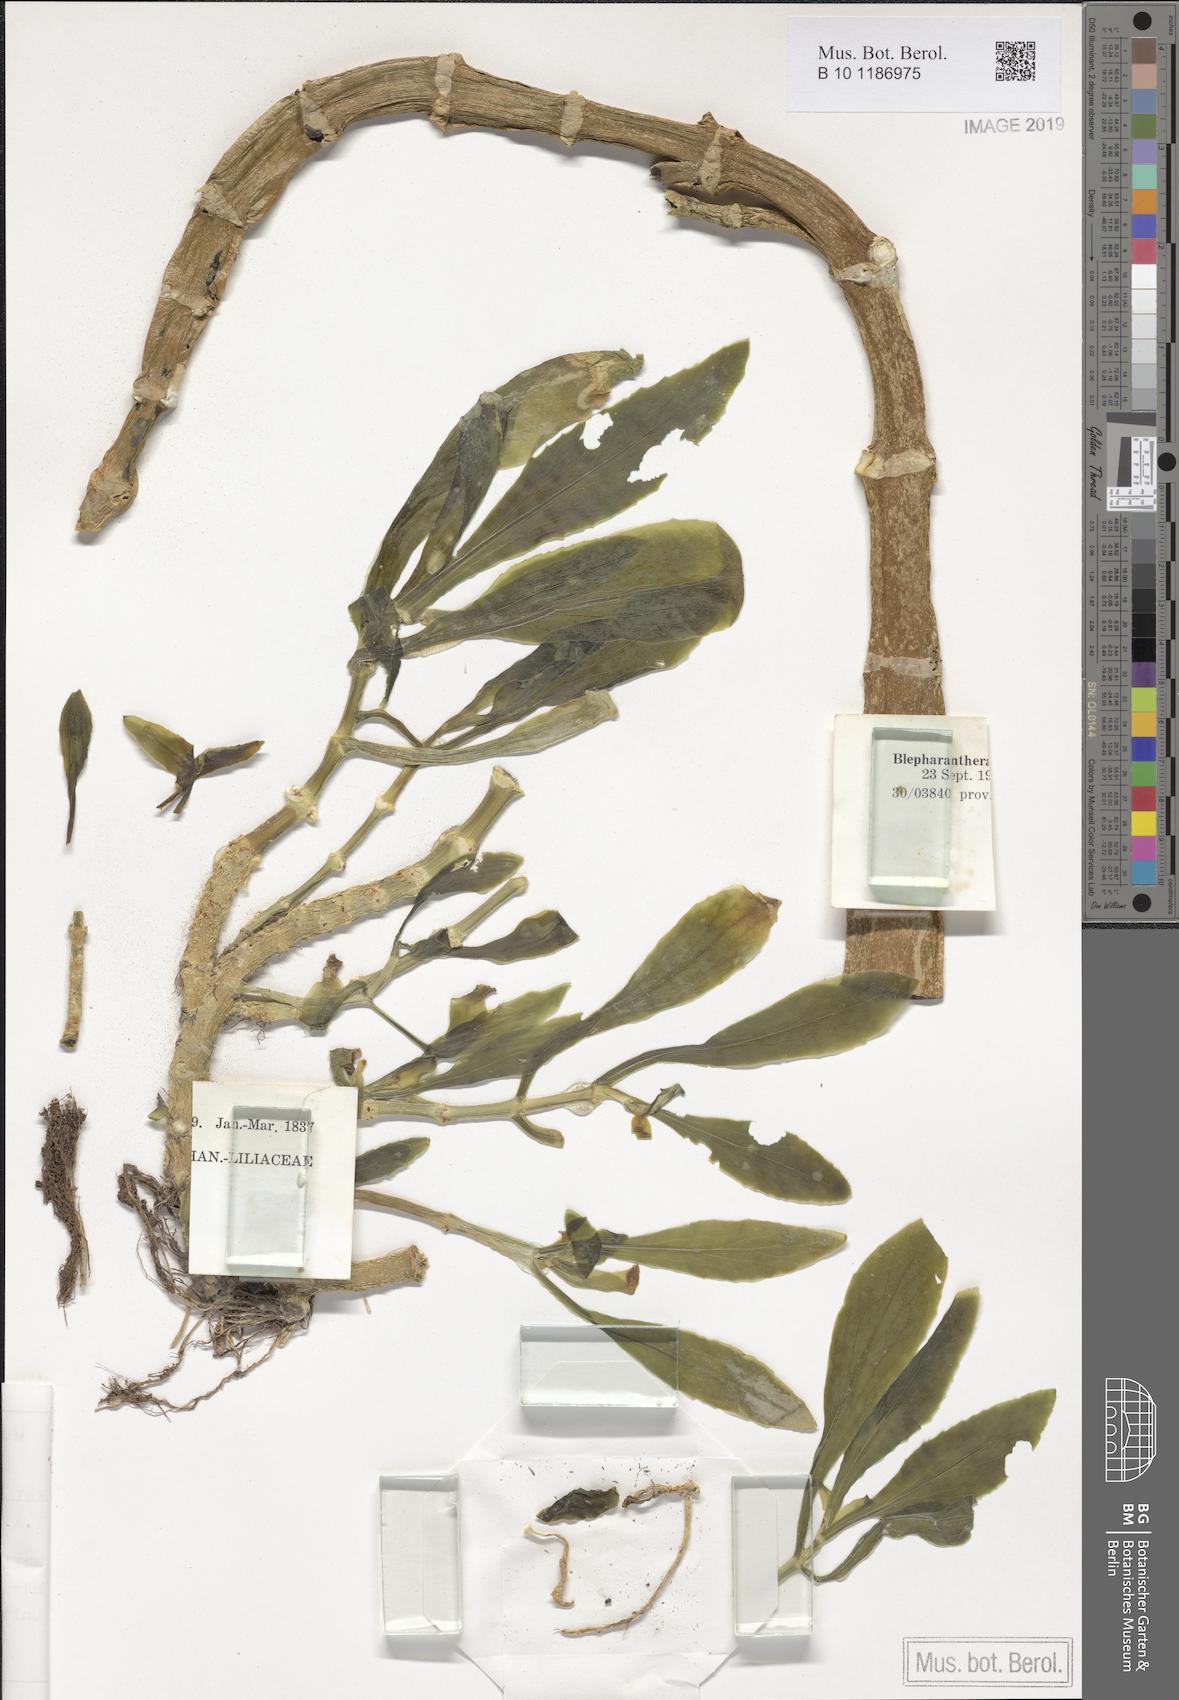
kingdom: Plantae
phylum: Tracheophyta
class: Magnoliopsida
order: Saxifragales
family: Crassulaceae
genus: Kalanchoe
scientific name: Kalanchoe yemensis
